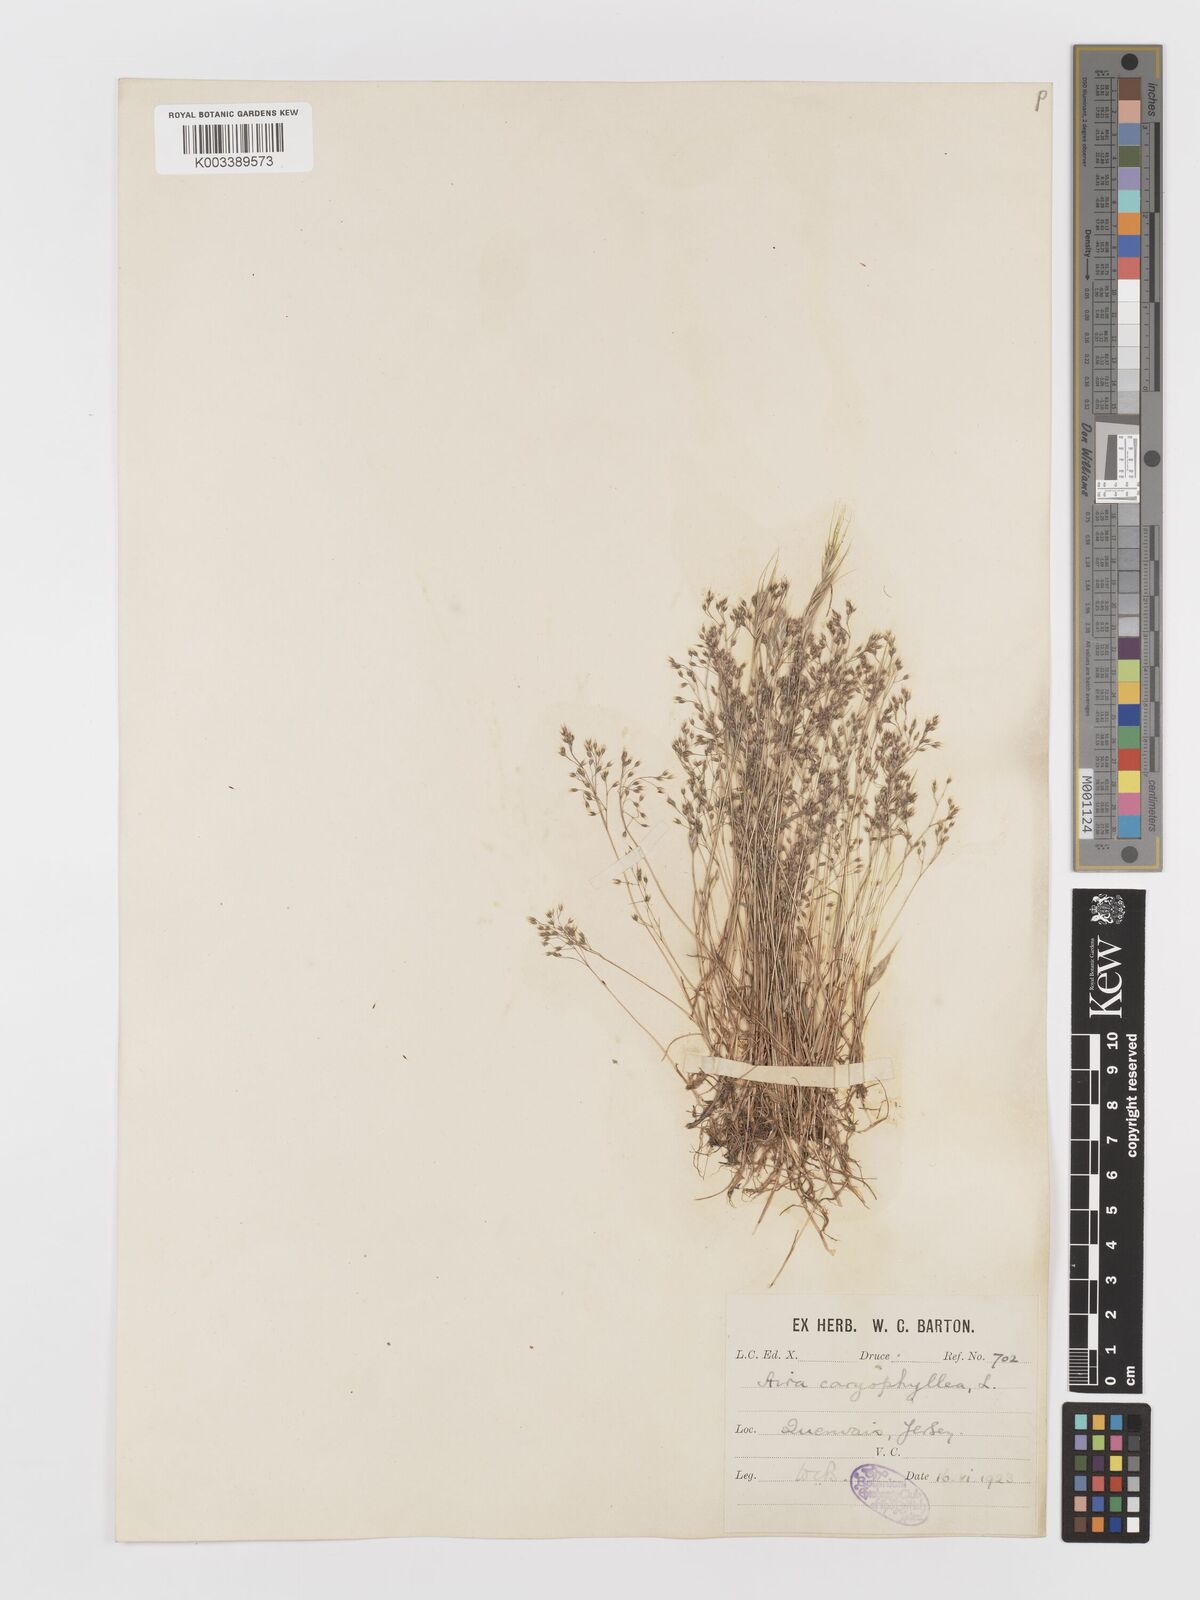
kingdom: Plantae
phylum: Tracheophyta
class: Liliopsida
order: Poales
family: Poaceae
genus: Aira
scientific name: Aira caryophyllea
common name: Silver hairgrass
